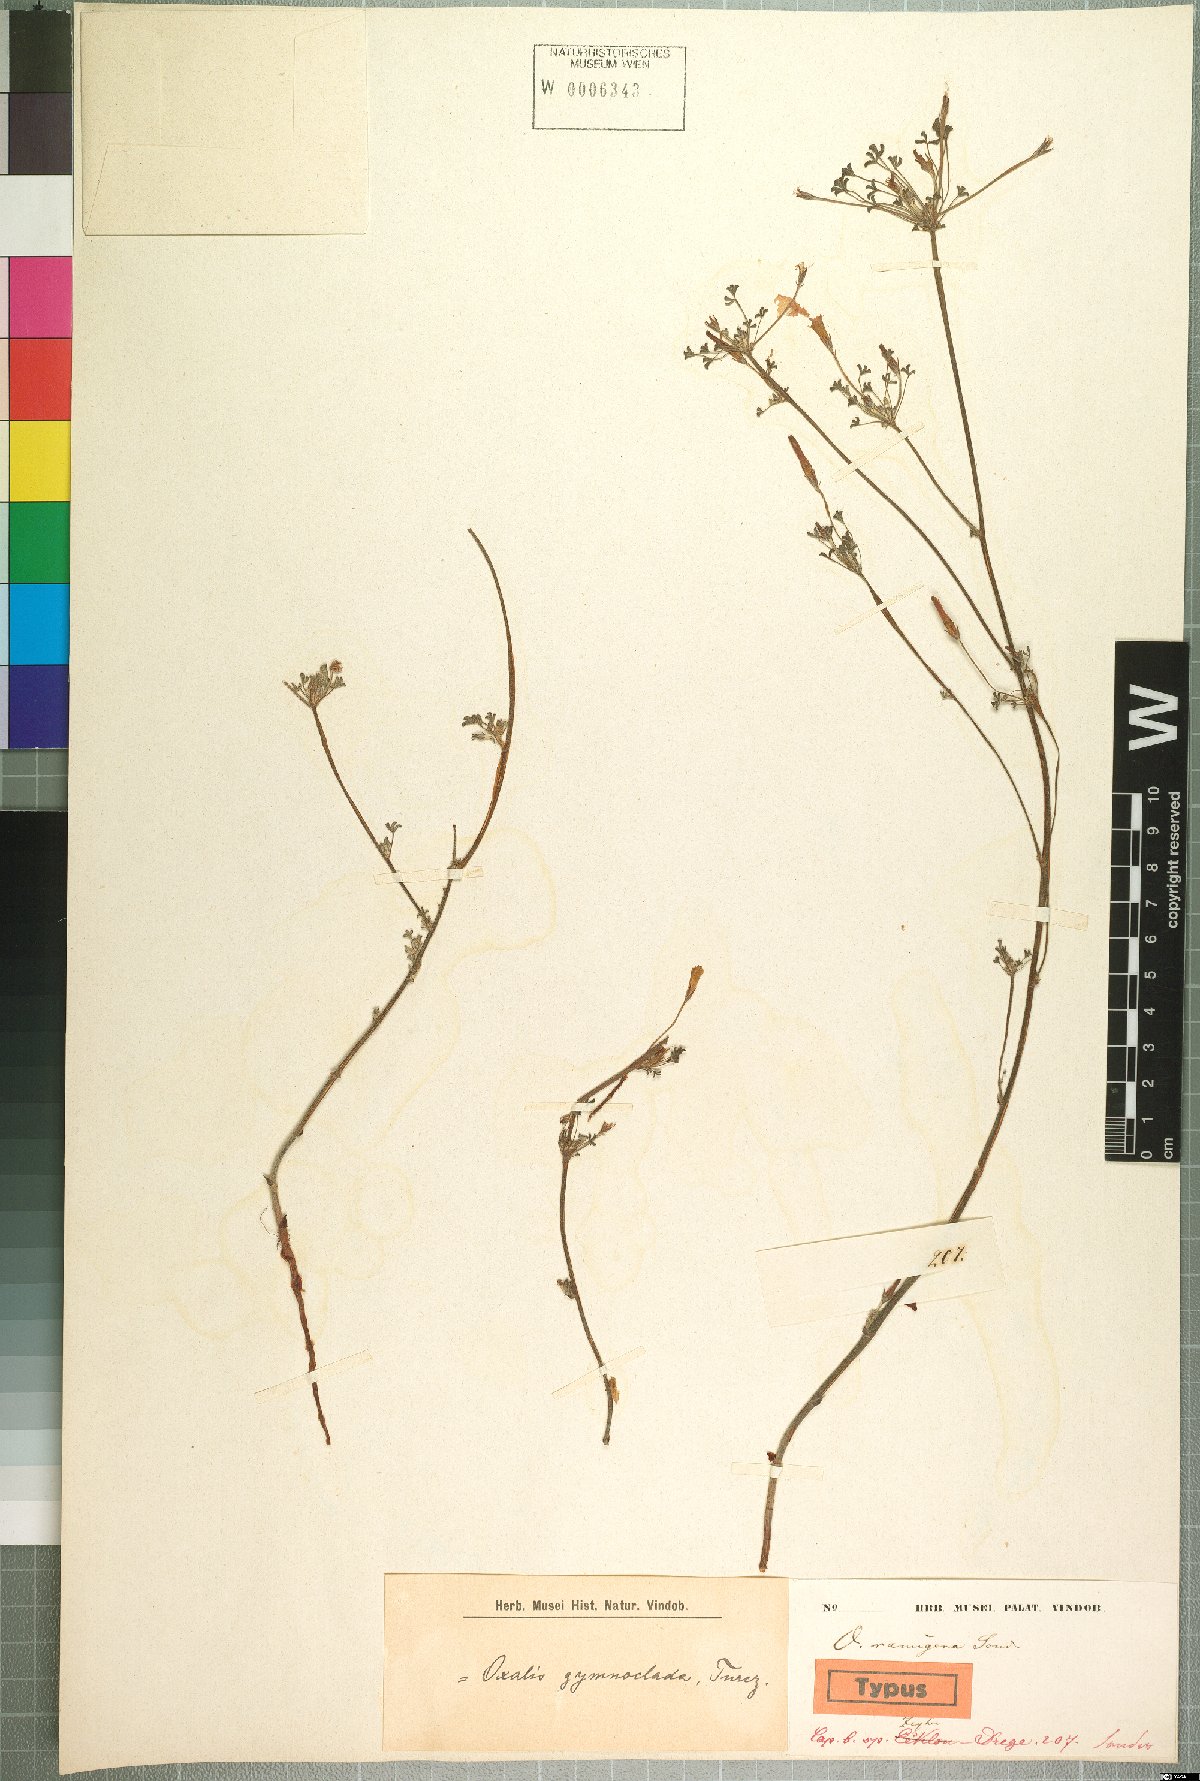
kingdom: Plantae
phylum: Tracheophyta
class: Magnoliopsida
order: Oxalidales
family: Oxalidaceae
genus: Oxalis
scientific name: Oxalis reclinata
